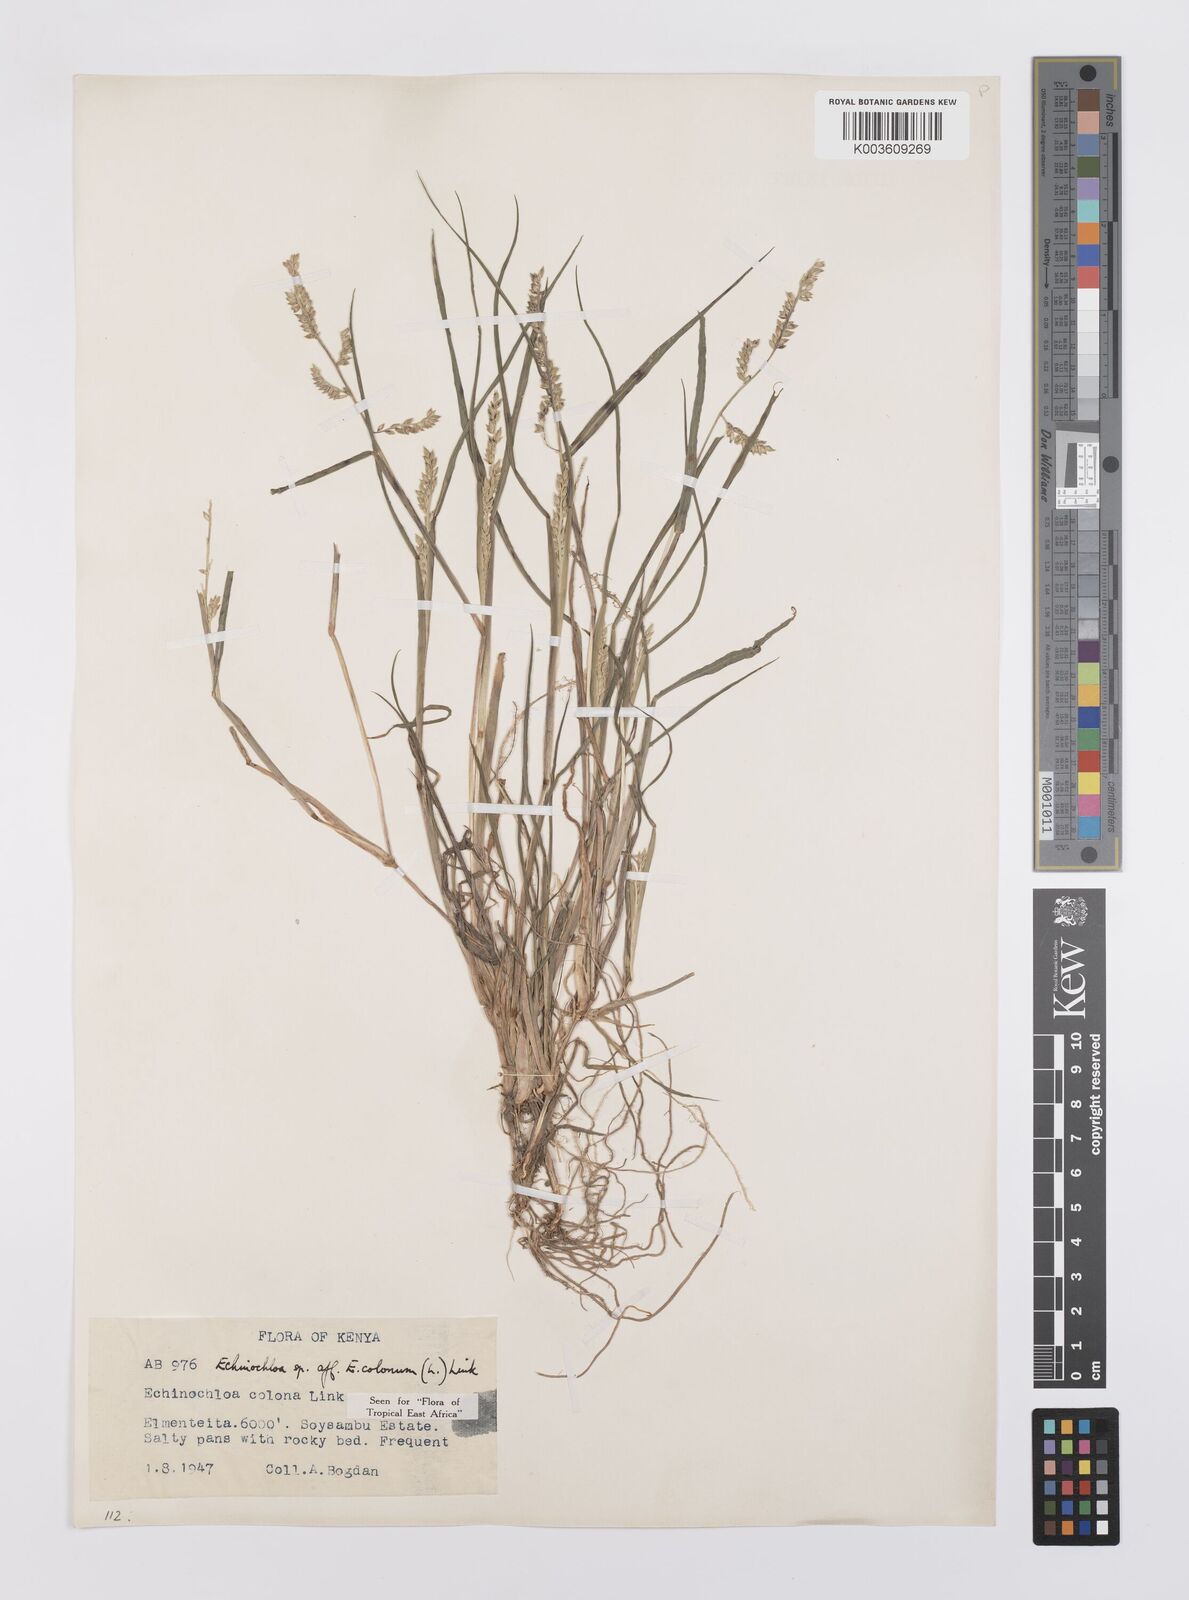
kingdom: Plantae
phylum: Tracheophyta
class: Liliopsida
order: Poales
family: Poaceae
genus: Echinochloa
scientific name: Echinochloa colonum
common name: Jungle rice
